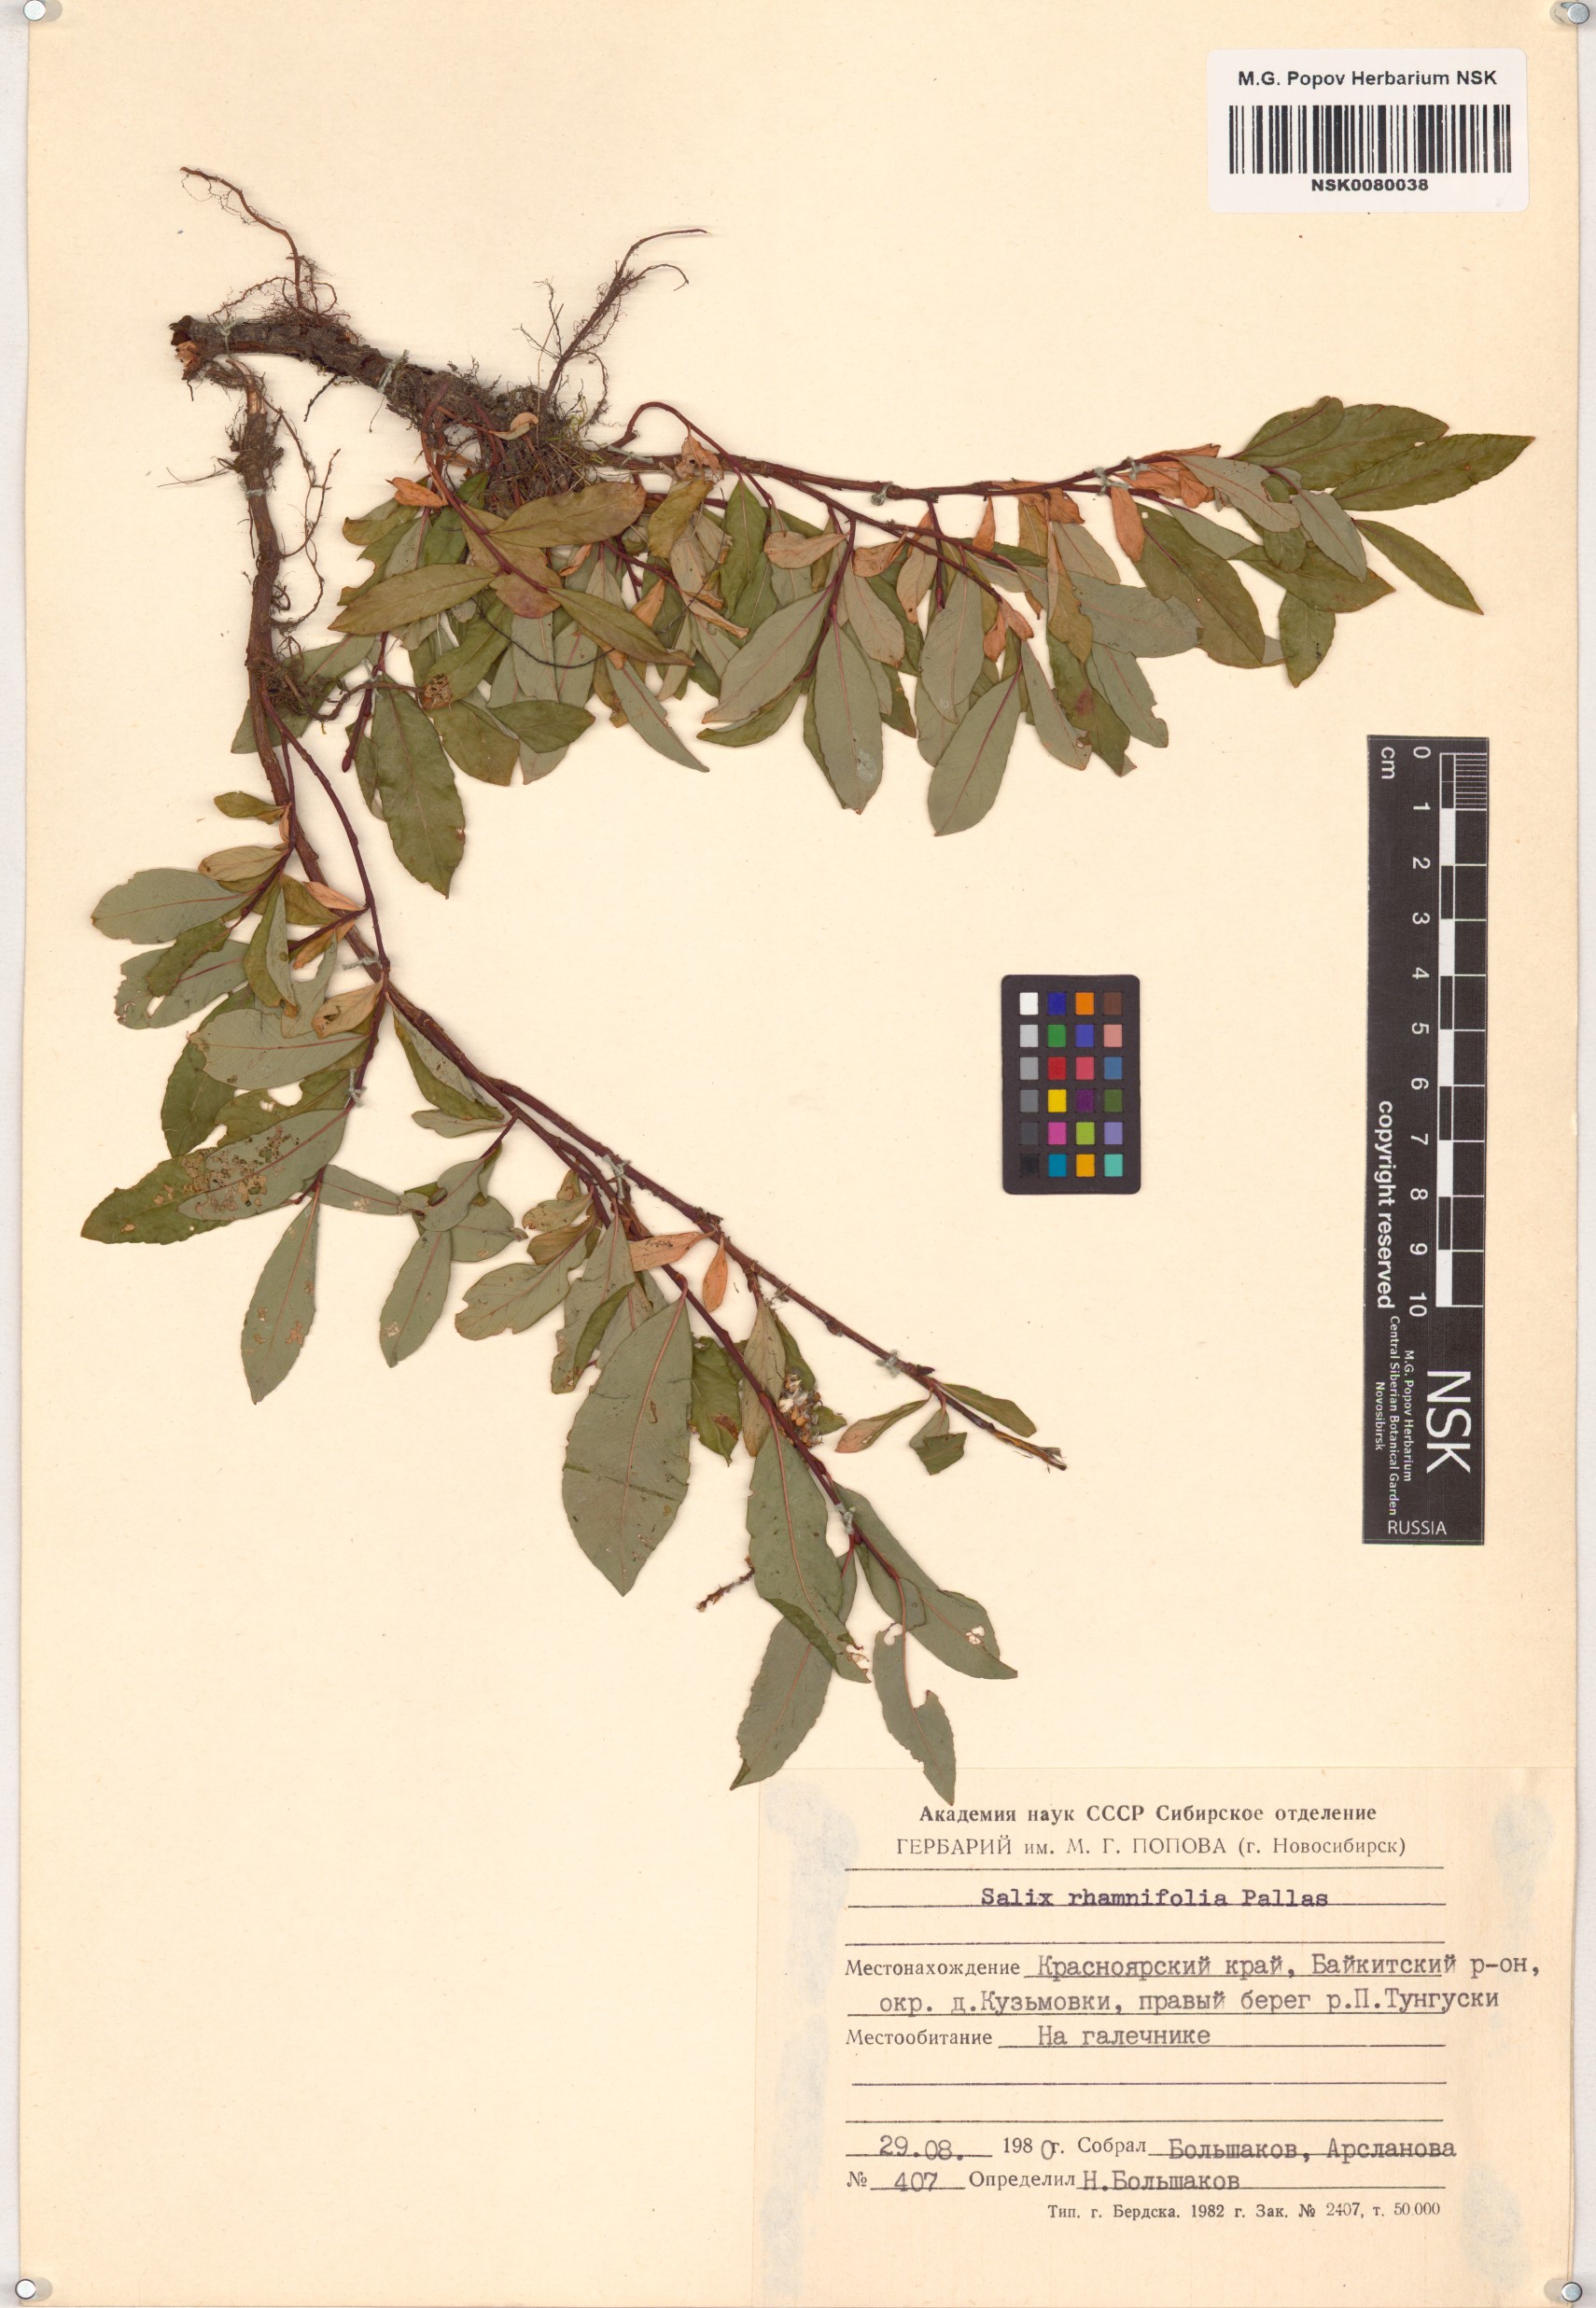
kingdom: Plantae
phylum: Tracheophyta
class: Magnoliopsida
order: Malpighiales
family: Salicaceae
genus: Salix
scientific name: Salix rhamnifolia
